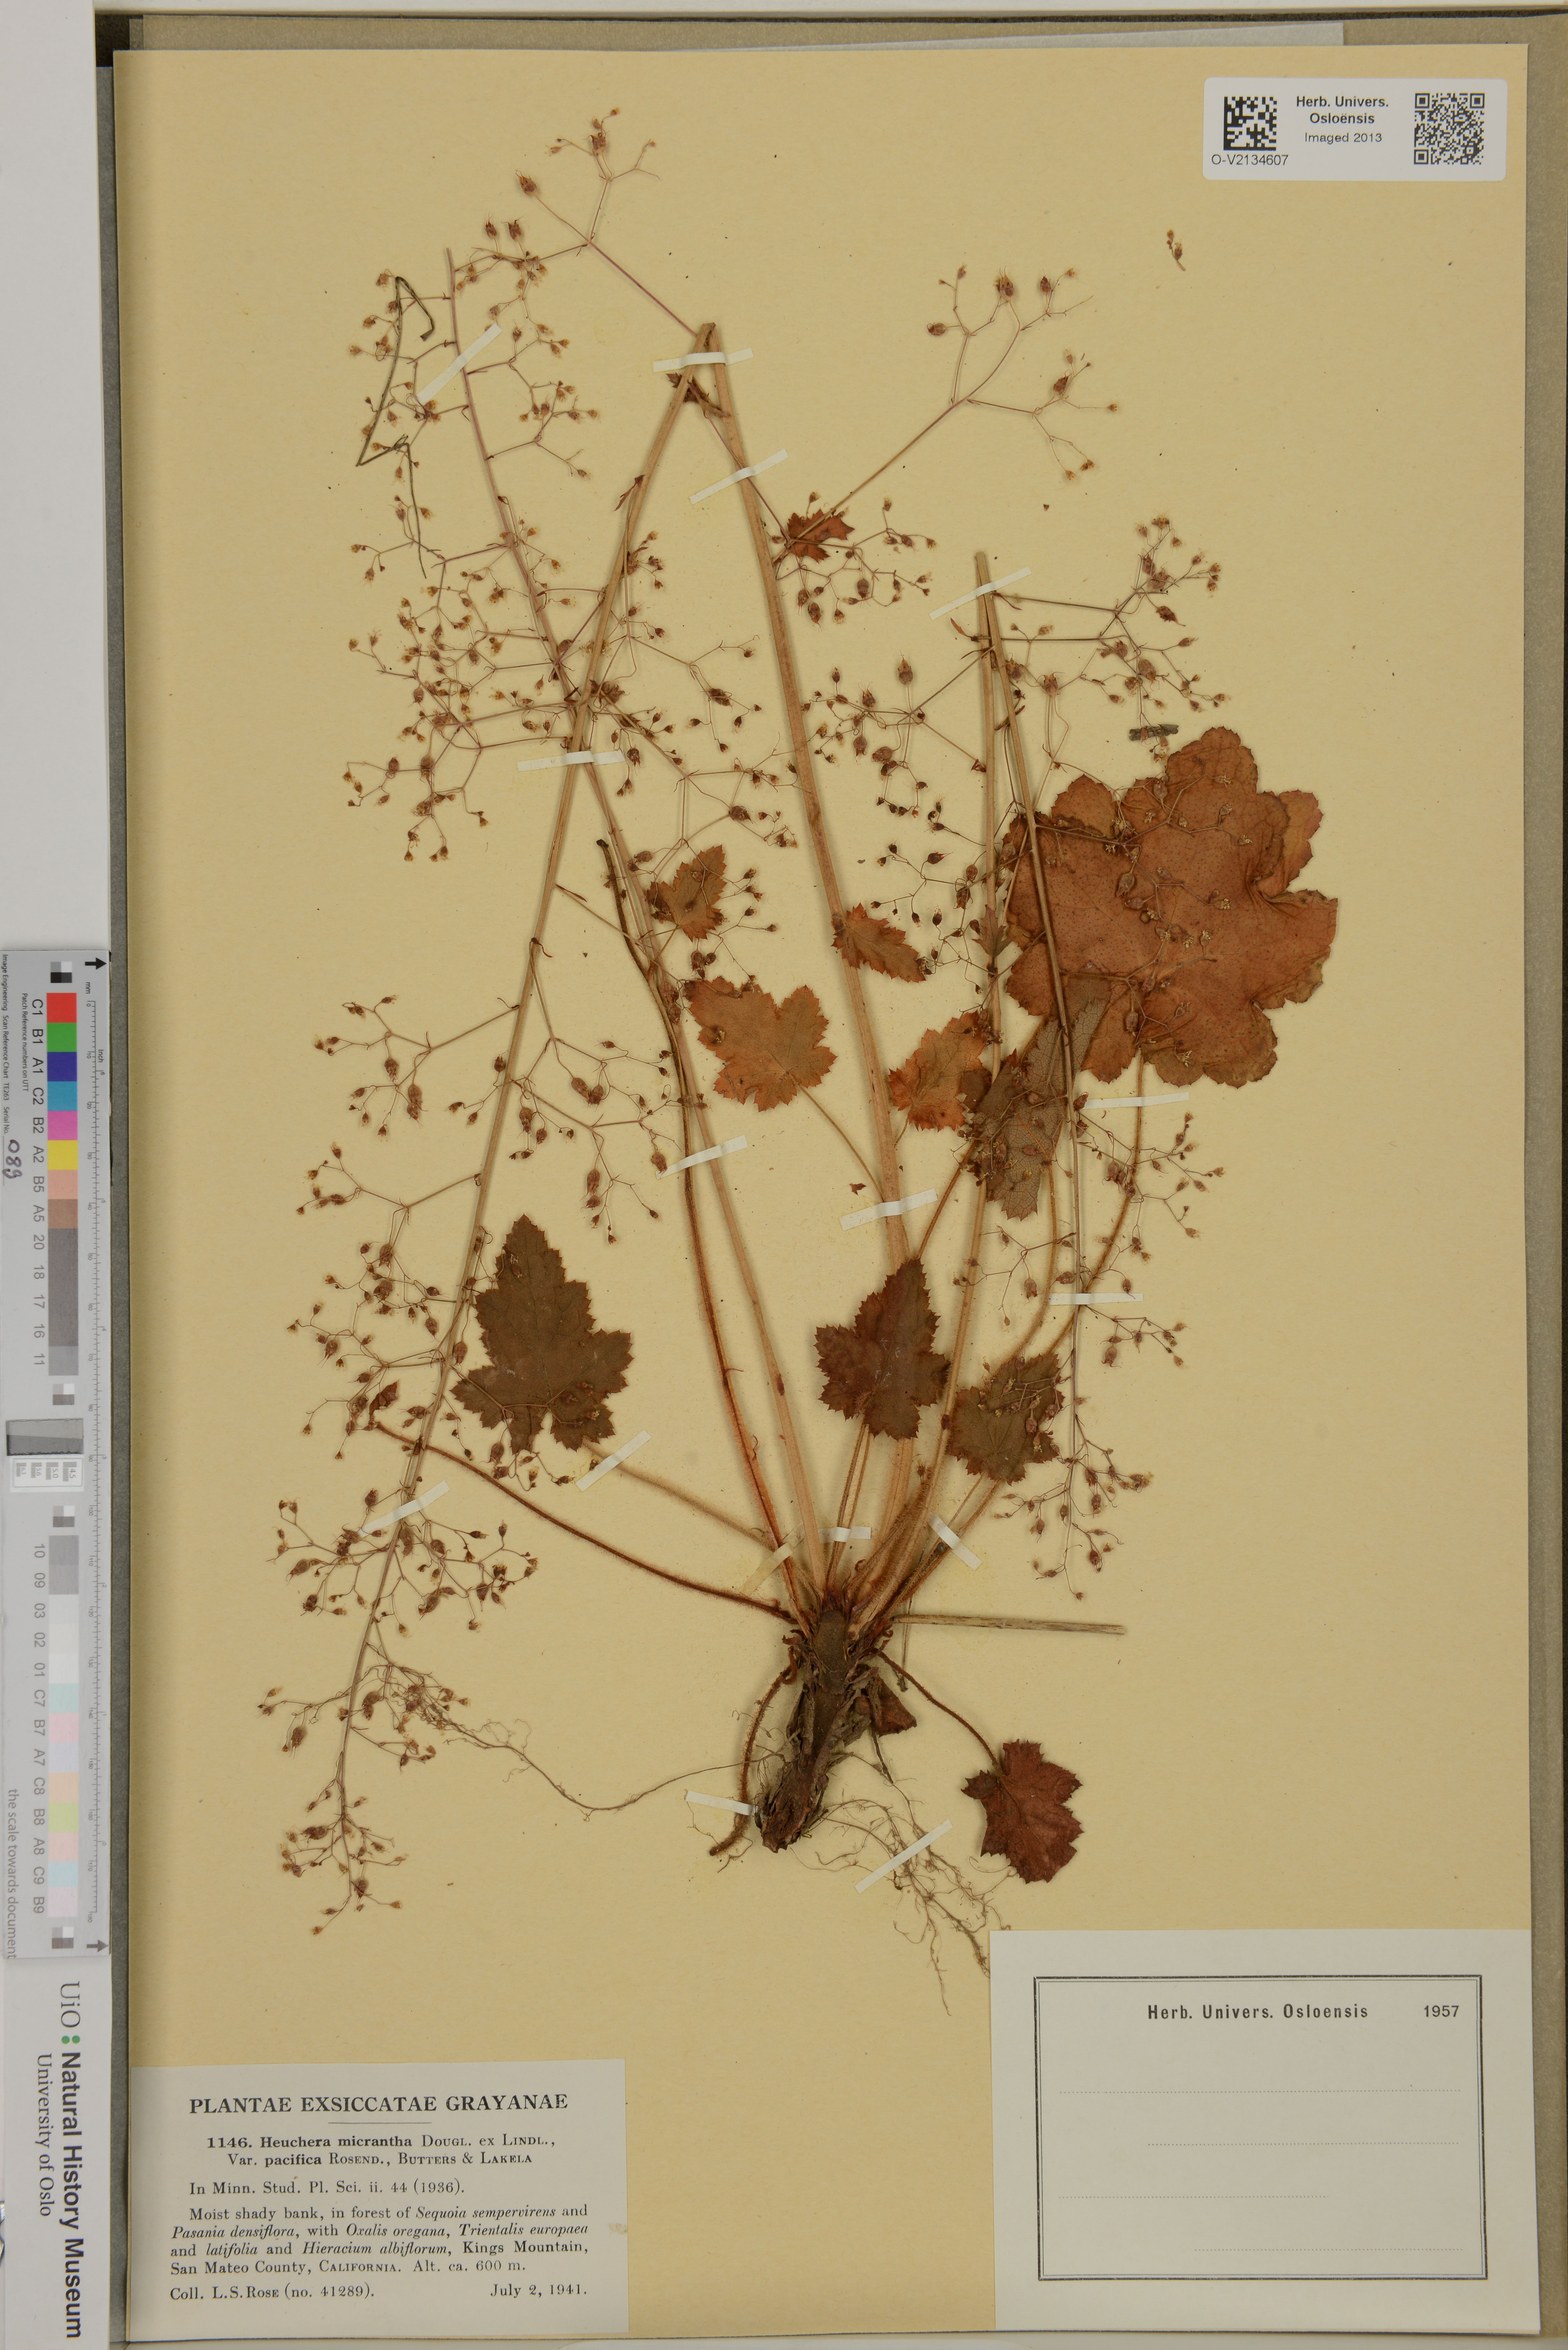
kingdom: Plantae
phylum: Tracheophyta
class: Magnoliopsida
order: Saxifragales
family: Saxifragaceae
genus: Heuchera
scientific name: Heuchera micrantha
